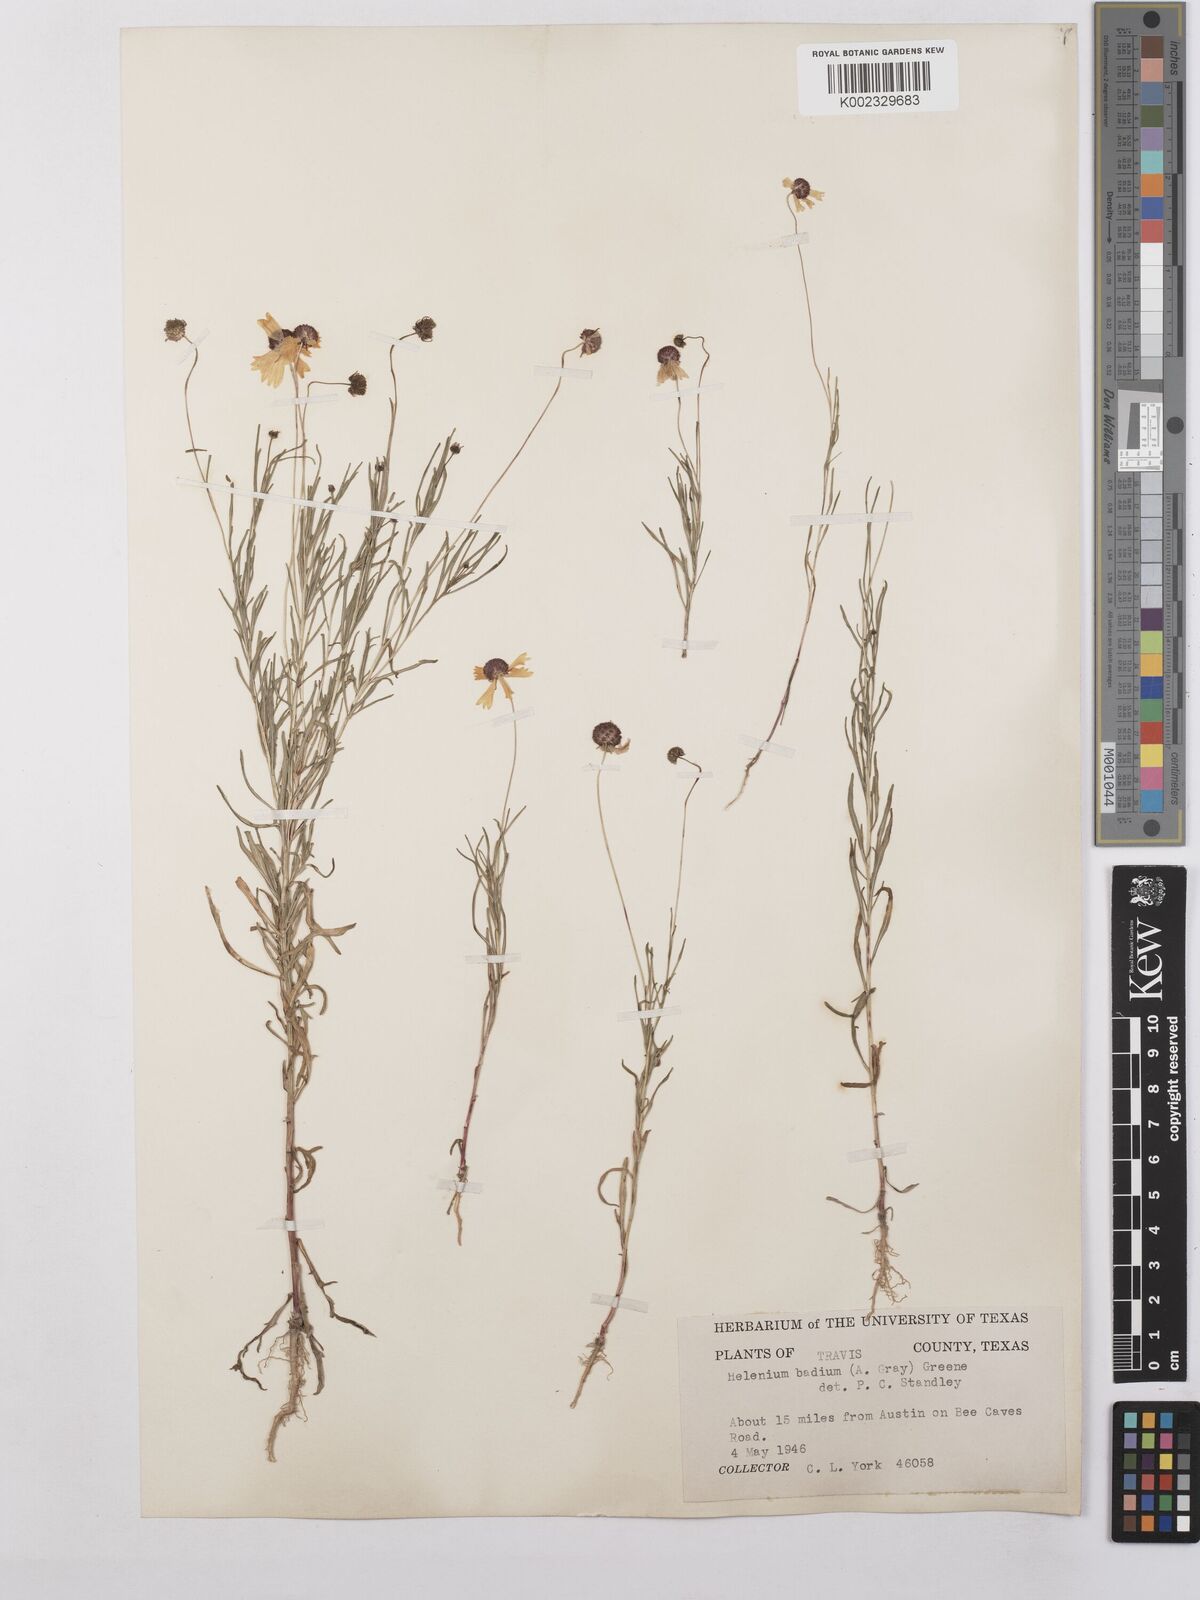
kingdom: Plantae
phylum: Tracheophyta
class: Magnoliopsida
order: Asterales
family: Asteraceae
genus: Helenium
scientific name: Helenium amarum
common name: Bitter sneezeweed
